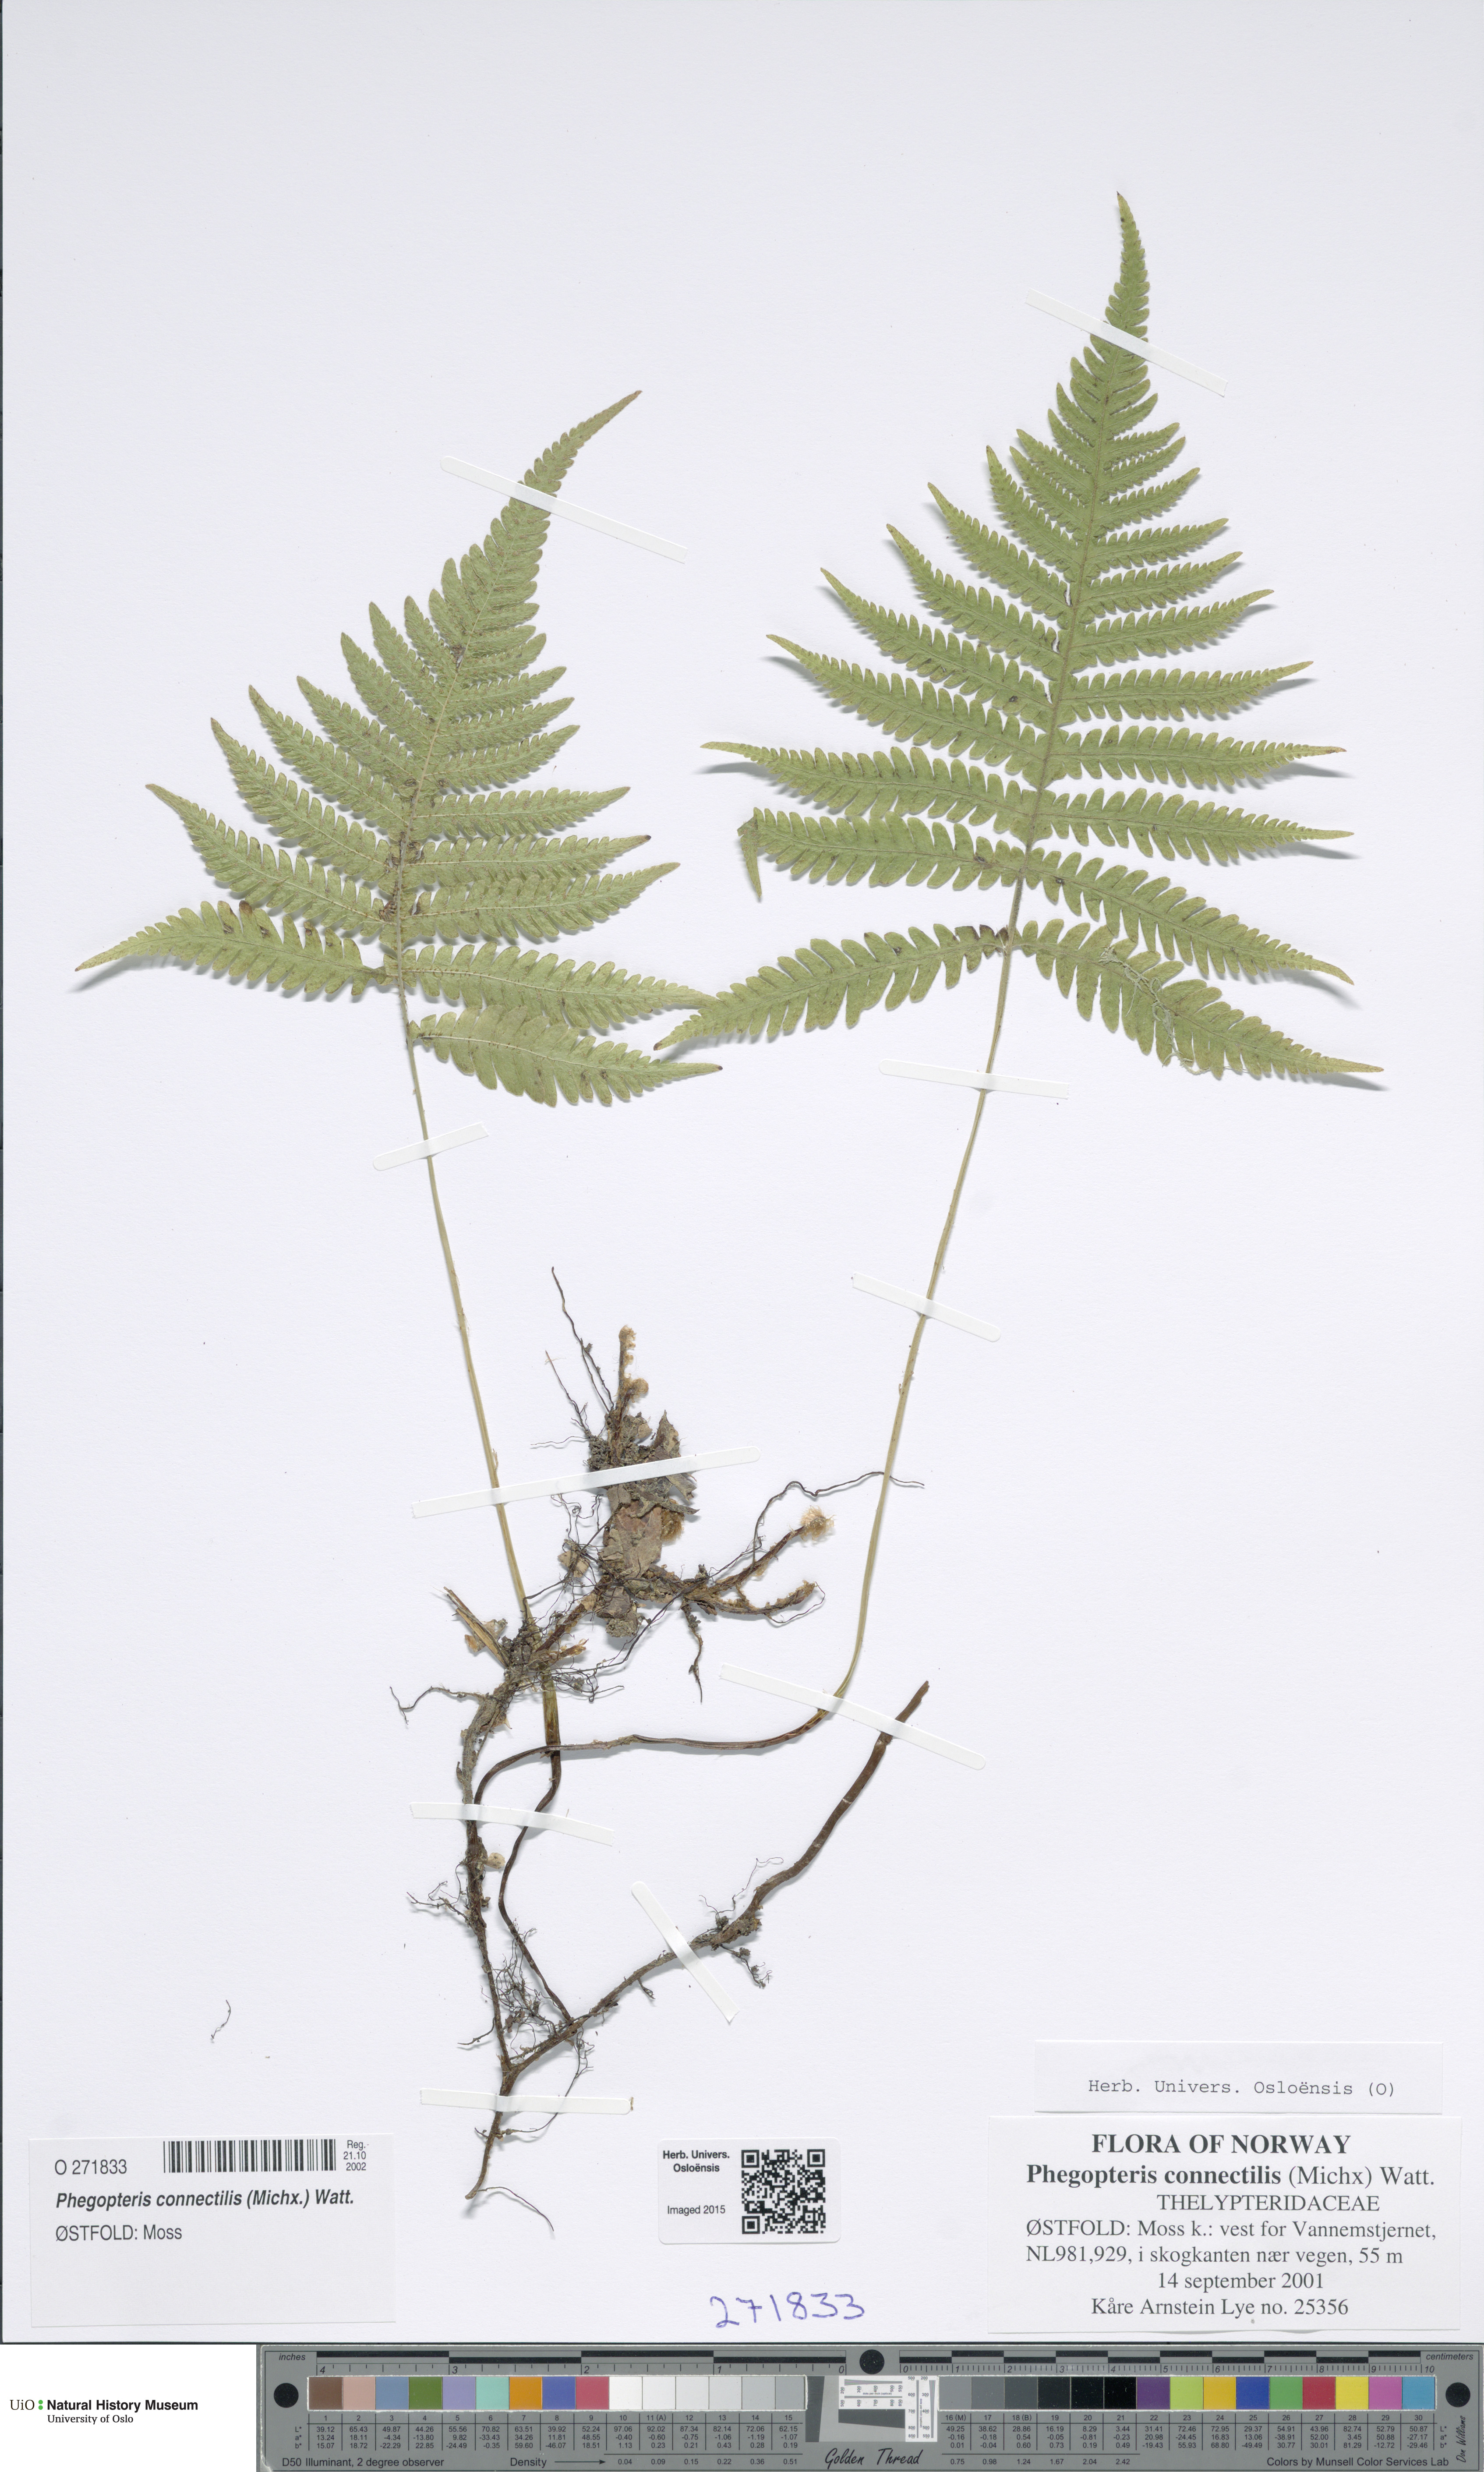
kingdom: Plantae
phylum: Tracheophyta
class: Polypodiopsida
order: Polypodiales
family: Thelypteridaceae
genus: Phegopteris
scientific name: Phegopteris connectilis
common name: Beech fern
